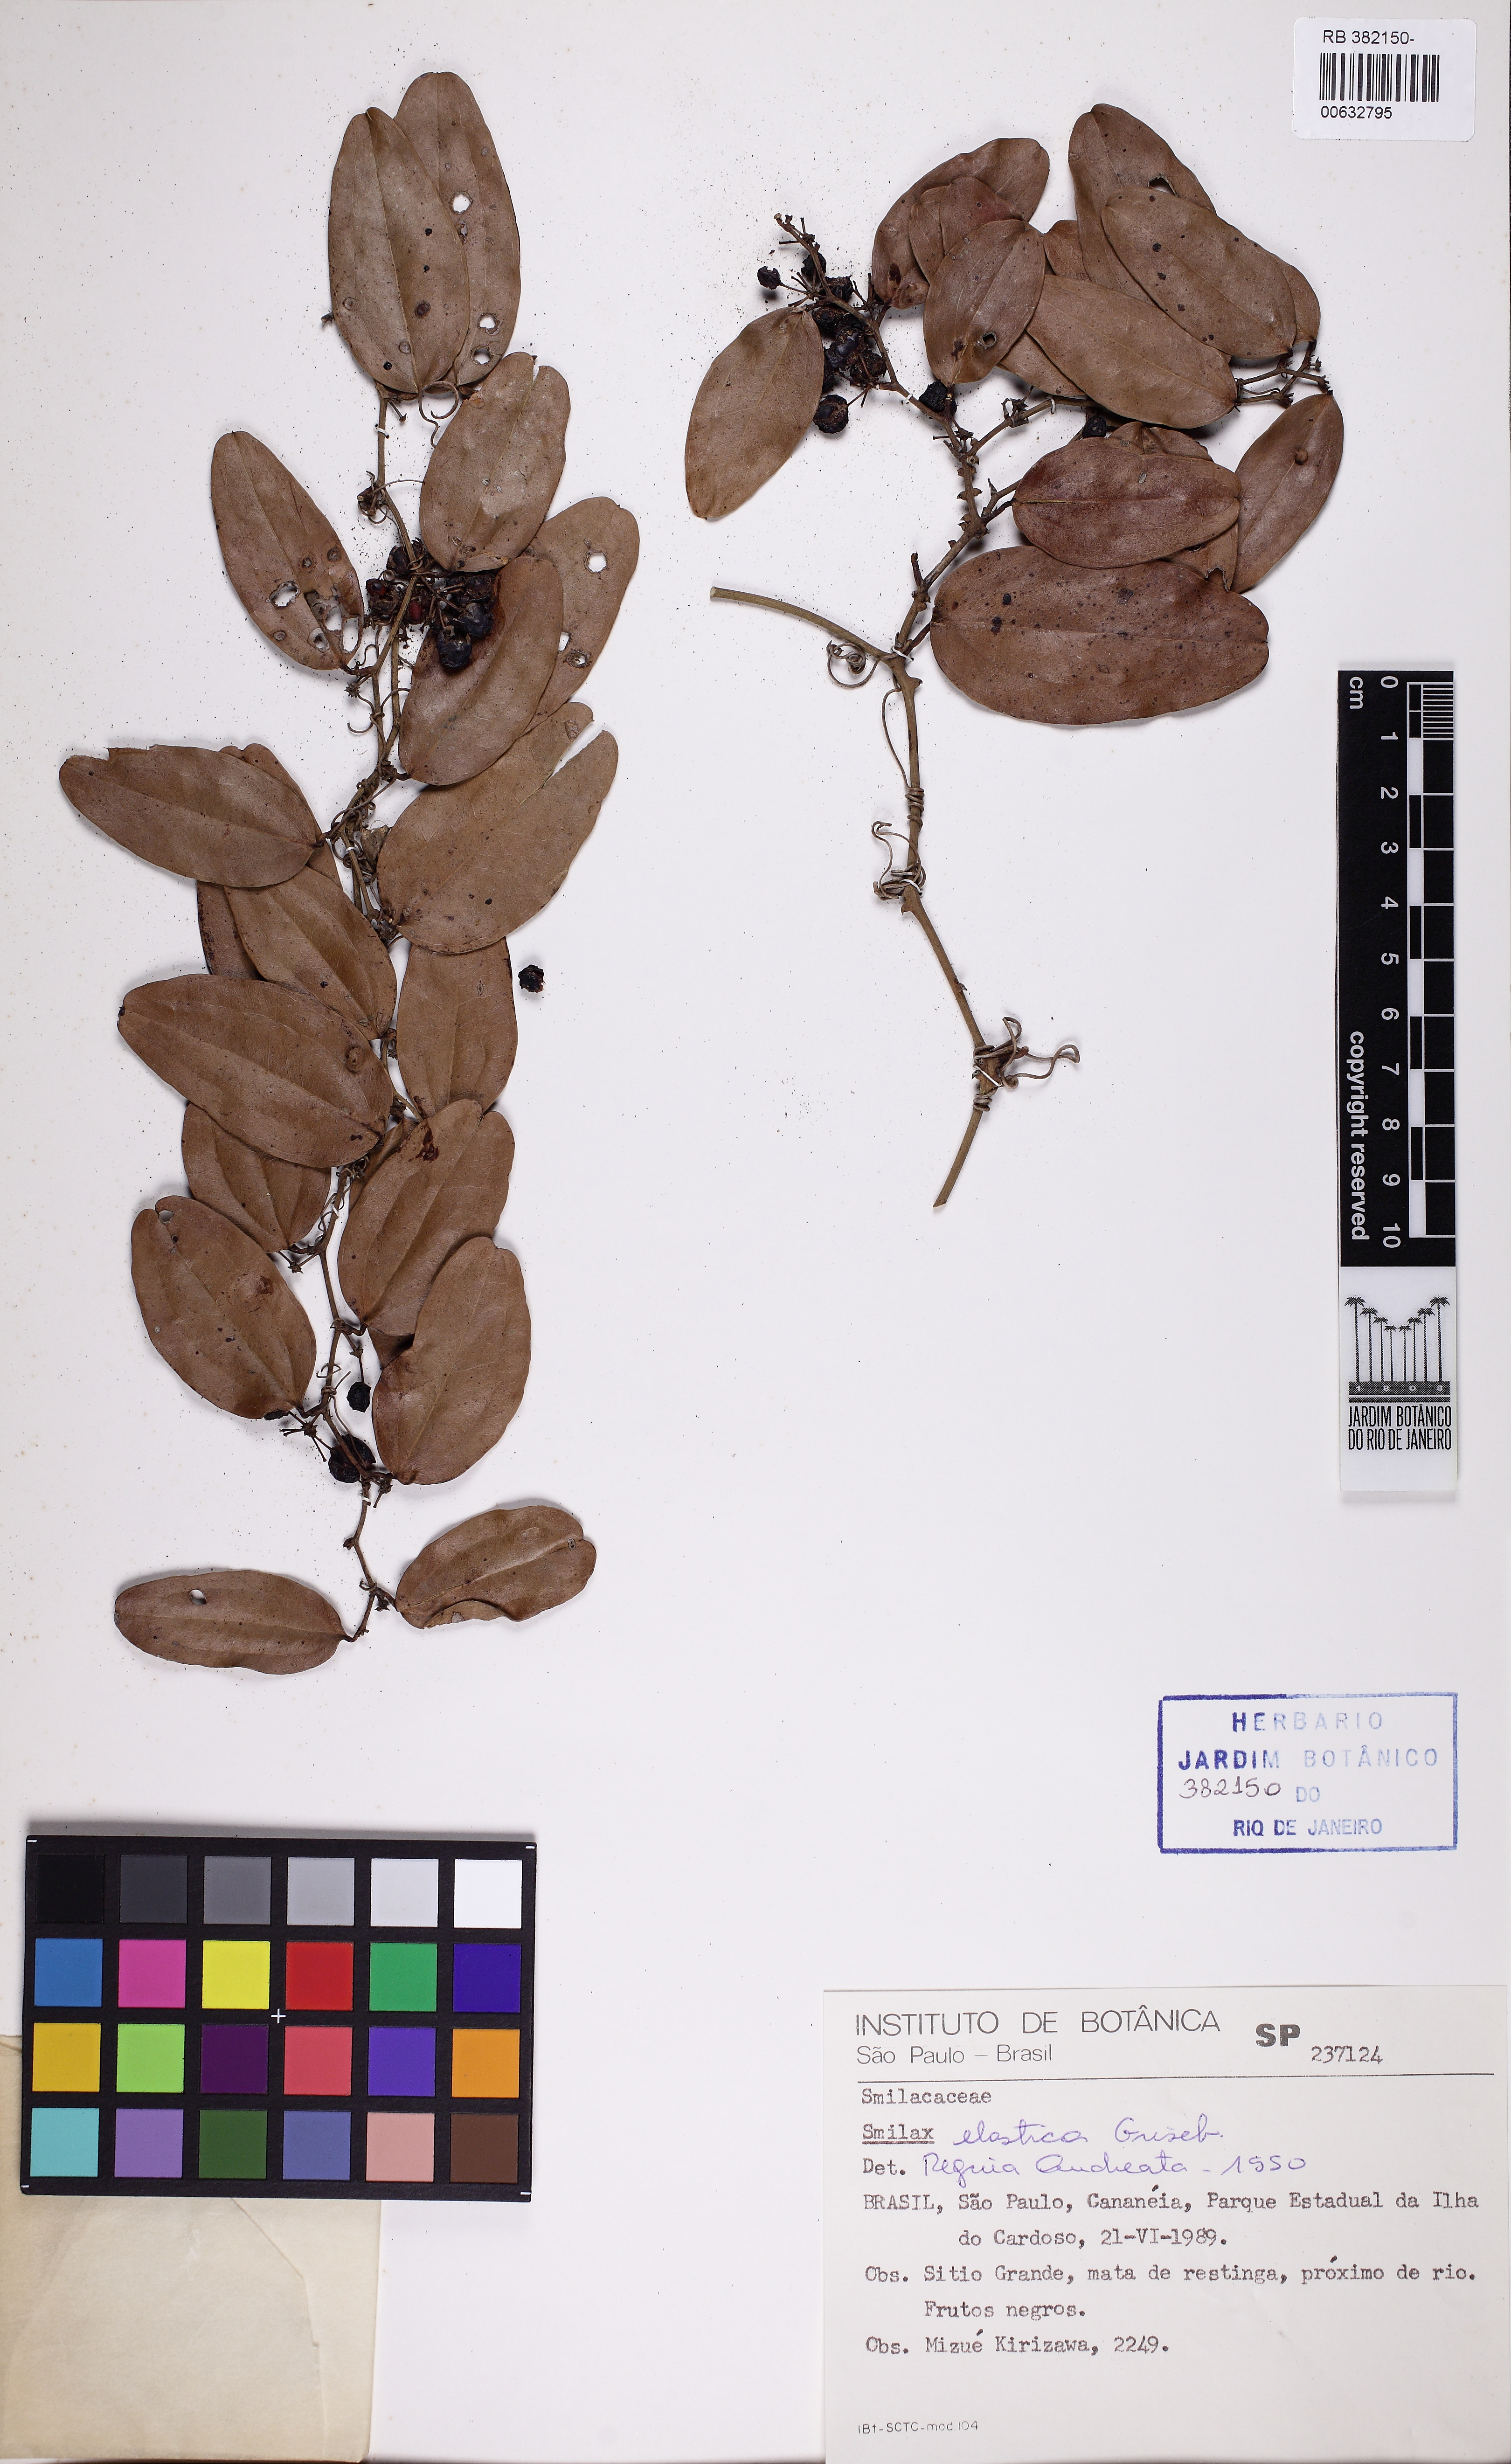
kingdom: Plantae
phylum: Tracheophyta
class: Liliopsida
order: Liliales
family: Smilacaceae
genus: Smilax
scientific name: Smilax elastica
